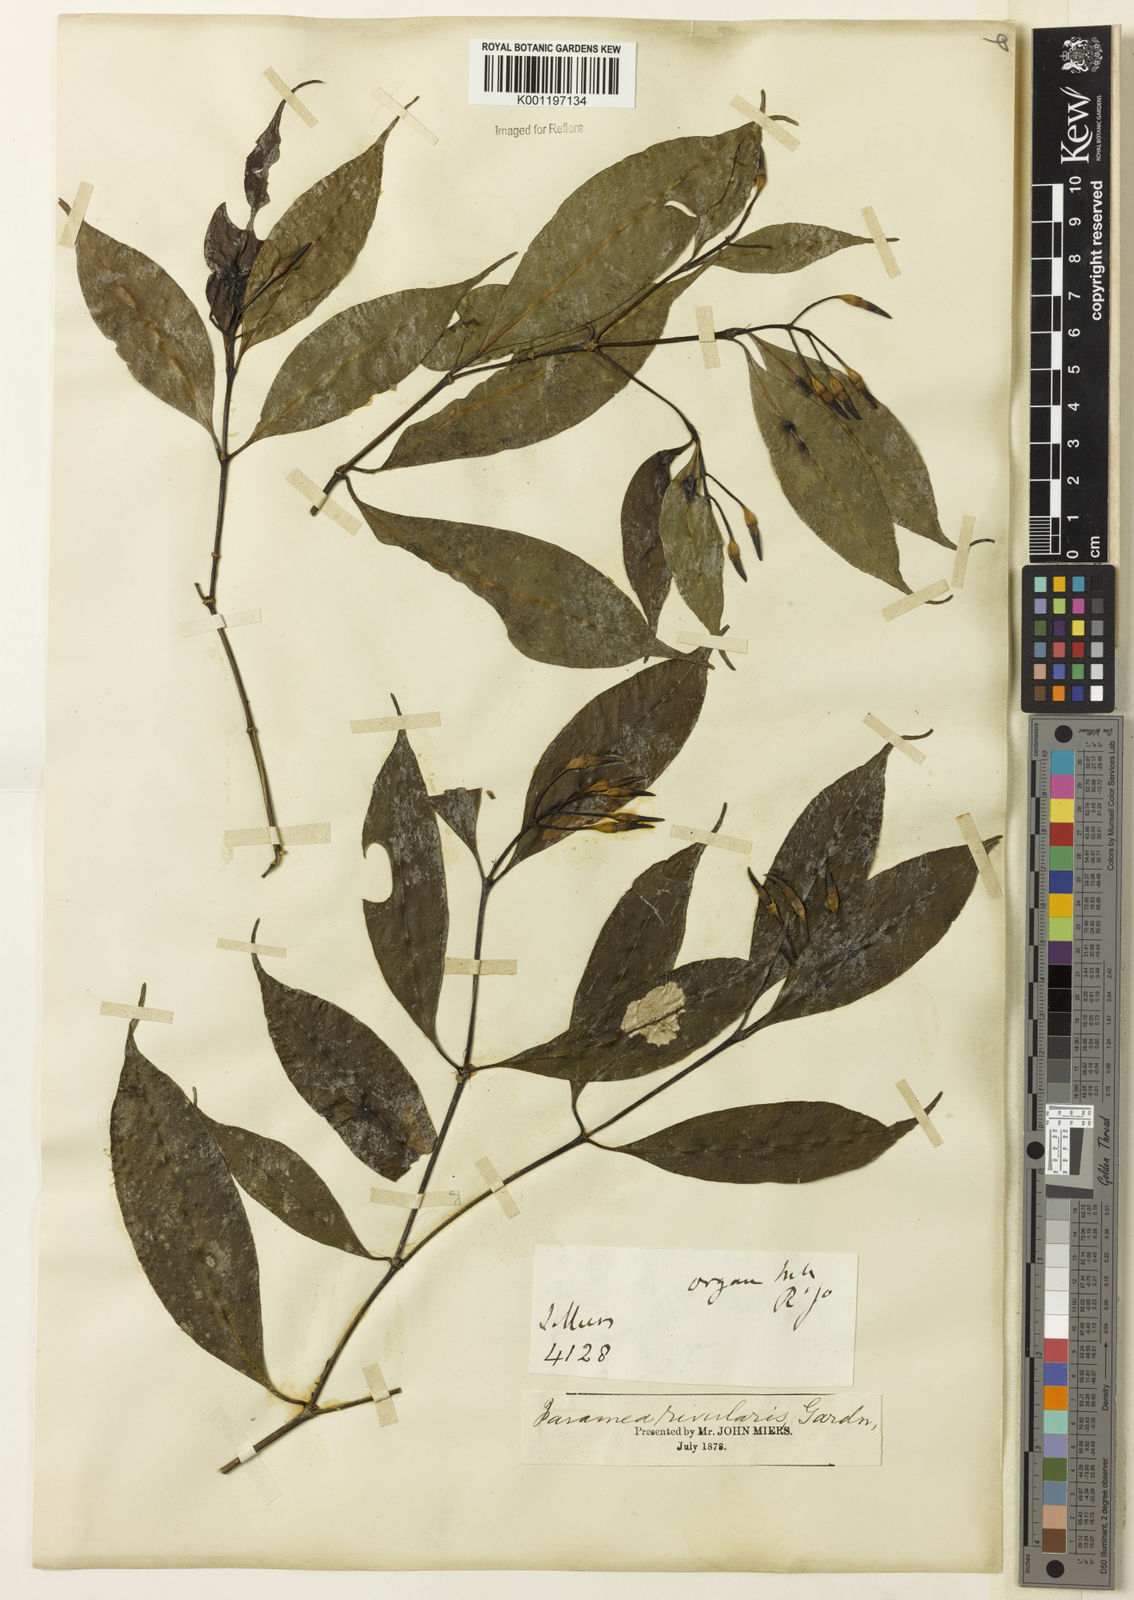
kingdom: Plantae
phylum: Tracheophyta
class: Magnoliopsida
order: Gentianales
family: Rubiaceae
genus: Faramea
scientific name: Faramea caudata
